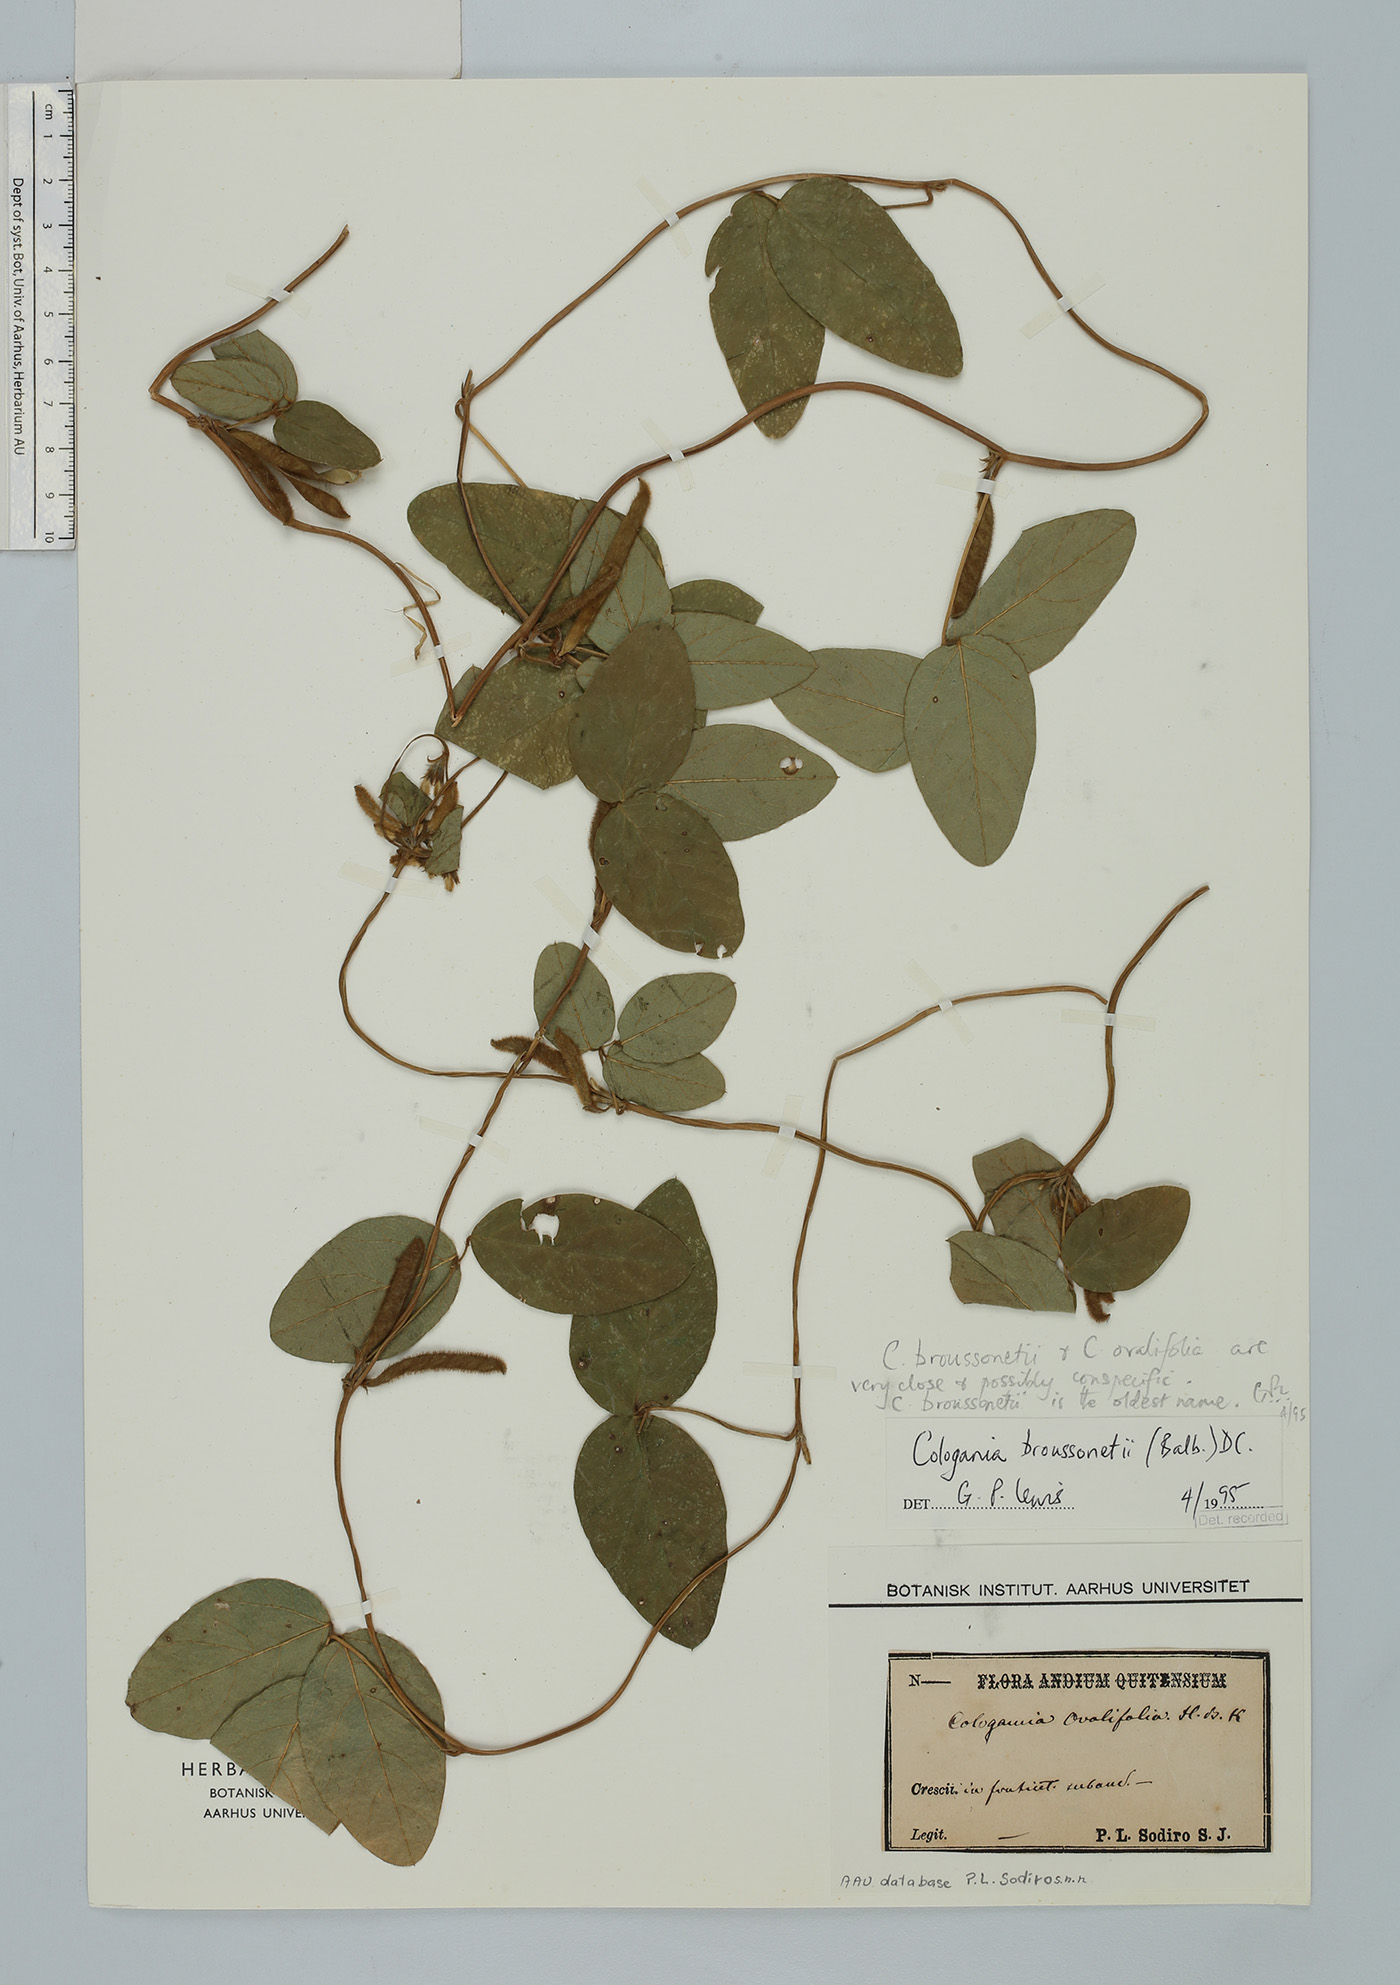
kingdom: Plantae
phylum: Tracheophyta
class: Magnoliopsida
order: Fabales
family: Fabaceae
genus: Cologania
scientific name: Cologania broussonetii
